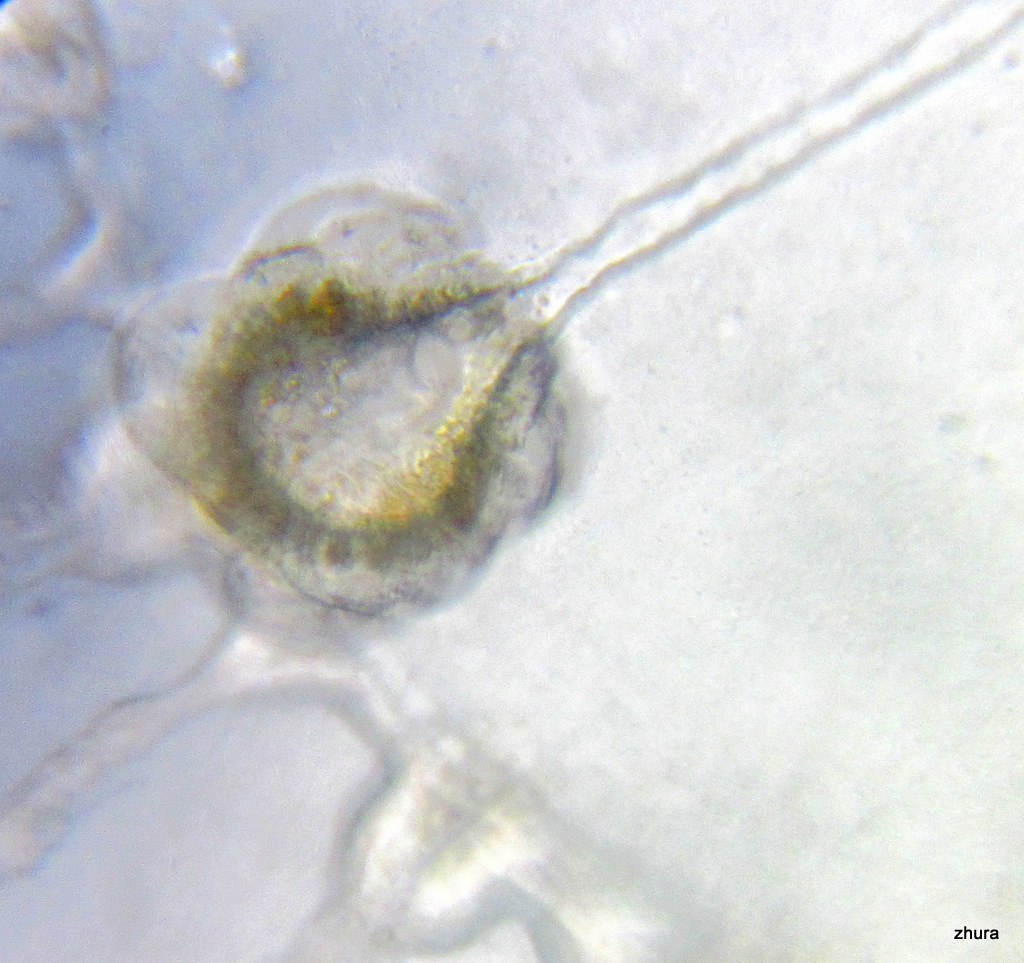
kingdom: Animalia
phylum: Cnidaria
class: Hydrozoa
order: Leptothecata
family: Campanulariidae
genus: Obelia
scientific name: Obelia longissima
